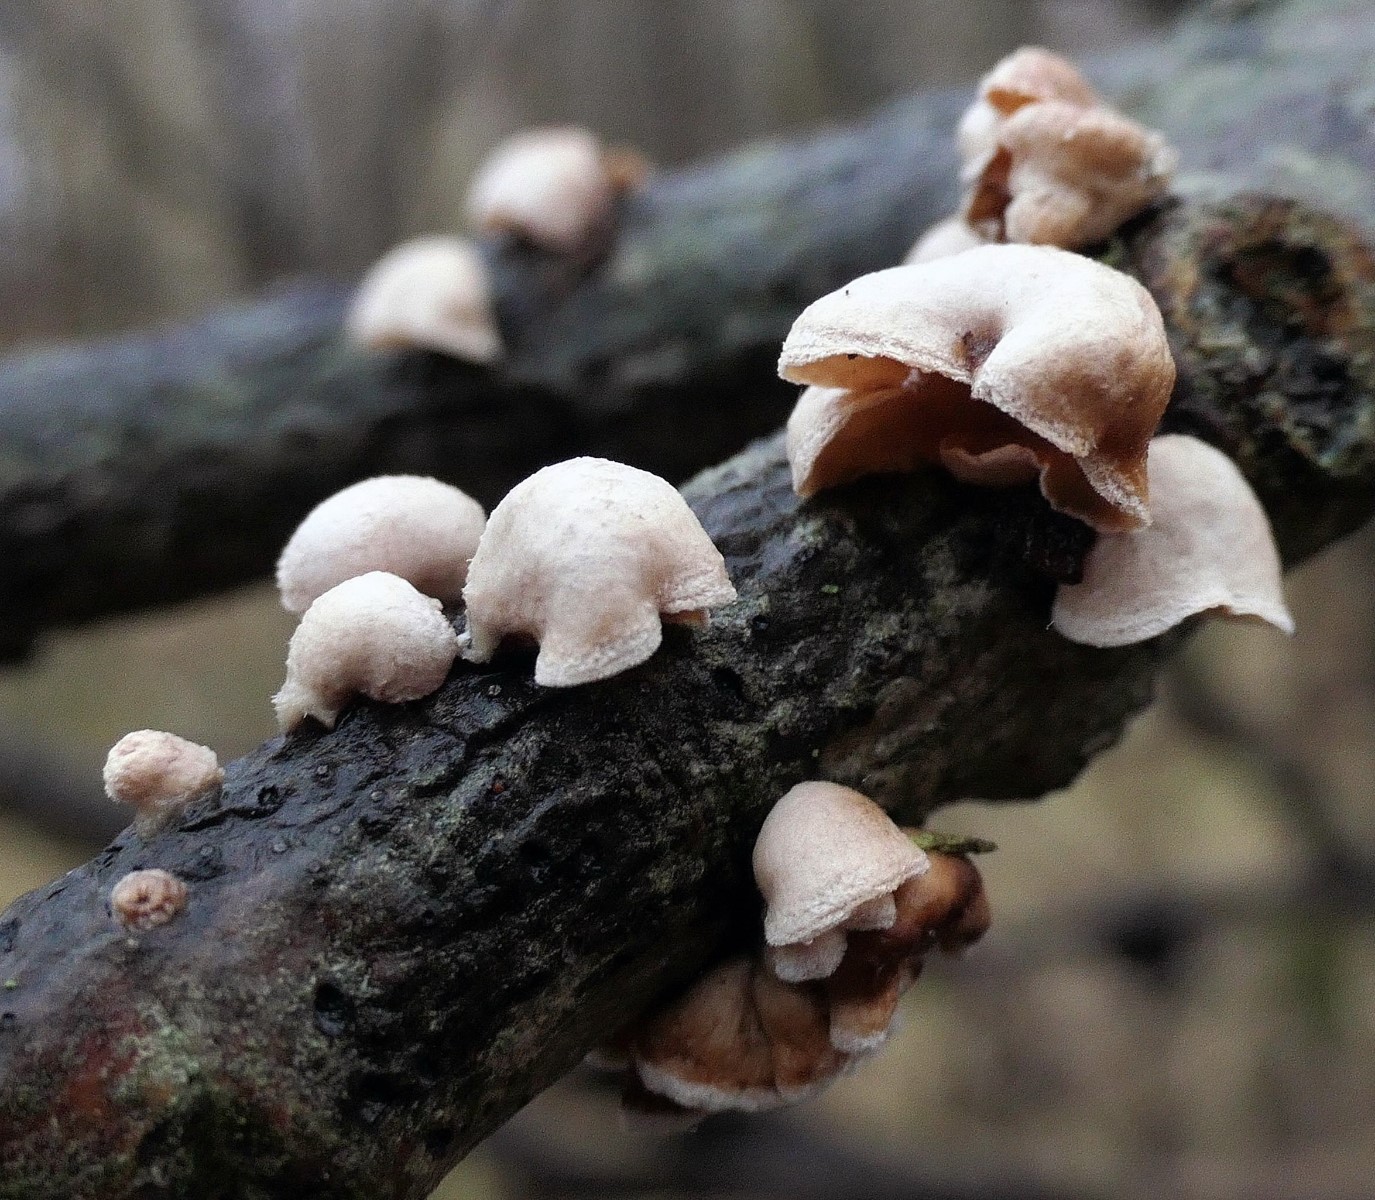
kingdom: Fungi
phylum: Basidiomycota
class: Agaricomycetes
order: Agaricales
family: Schizophyllaceae
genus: Schizophyllum
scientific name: Schizophyllum amplum
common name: poppel-hængeøre
